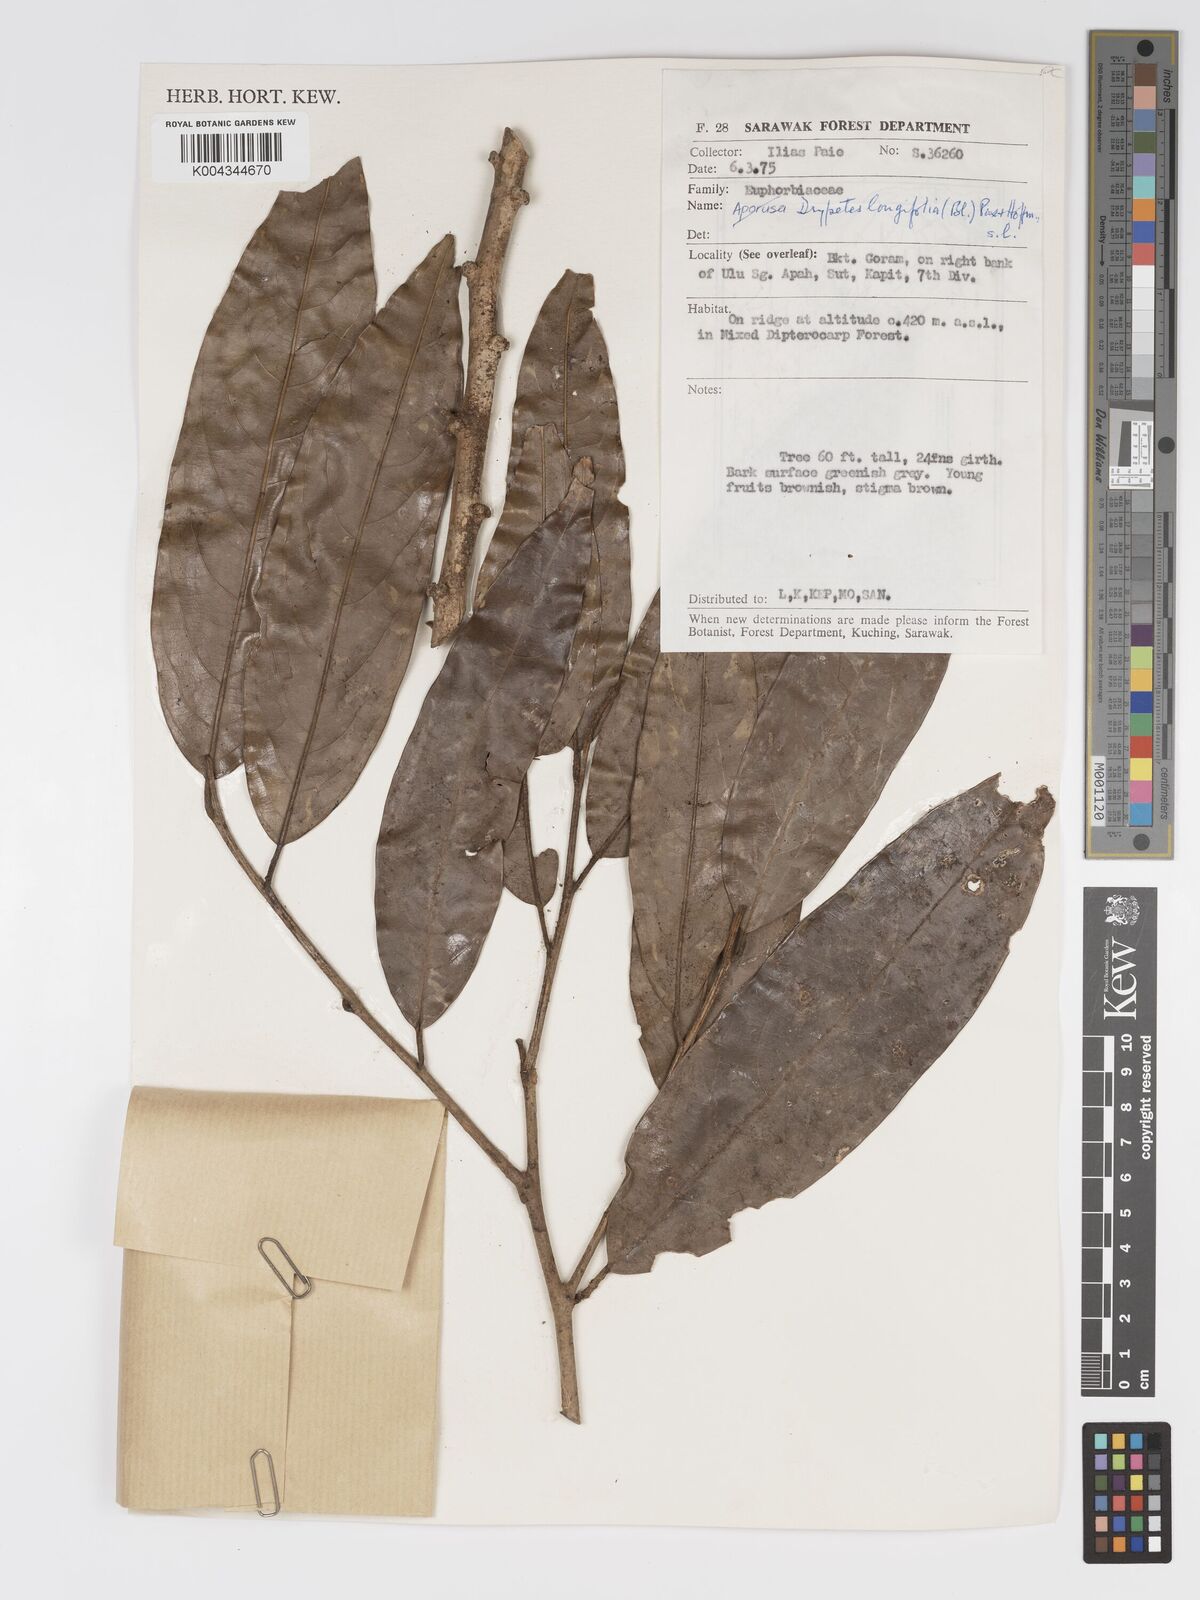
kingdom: Plantae
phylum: Tracheophyta
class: Magnoliopsida
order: Malpighiales
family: Putranjivaceae
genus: Drypetes
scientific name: Drypetes longifolia
